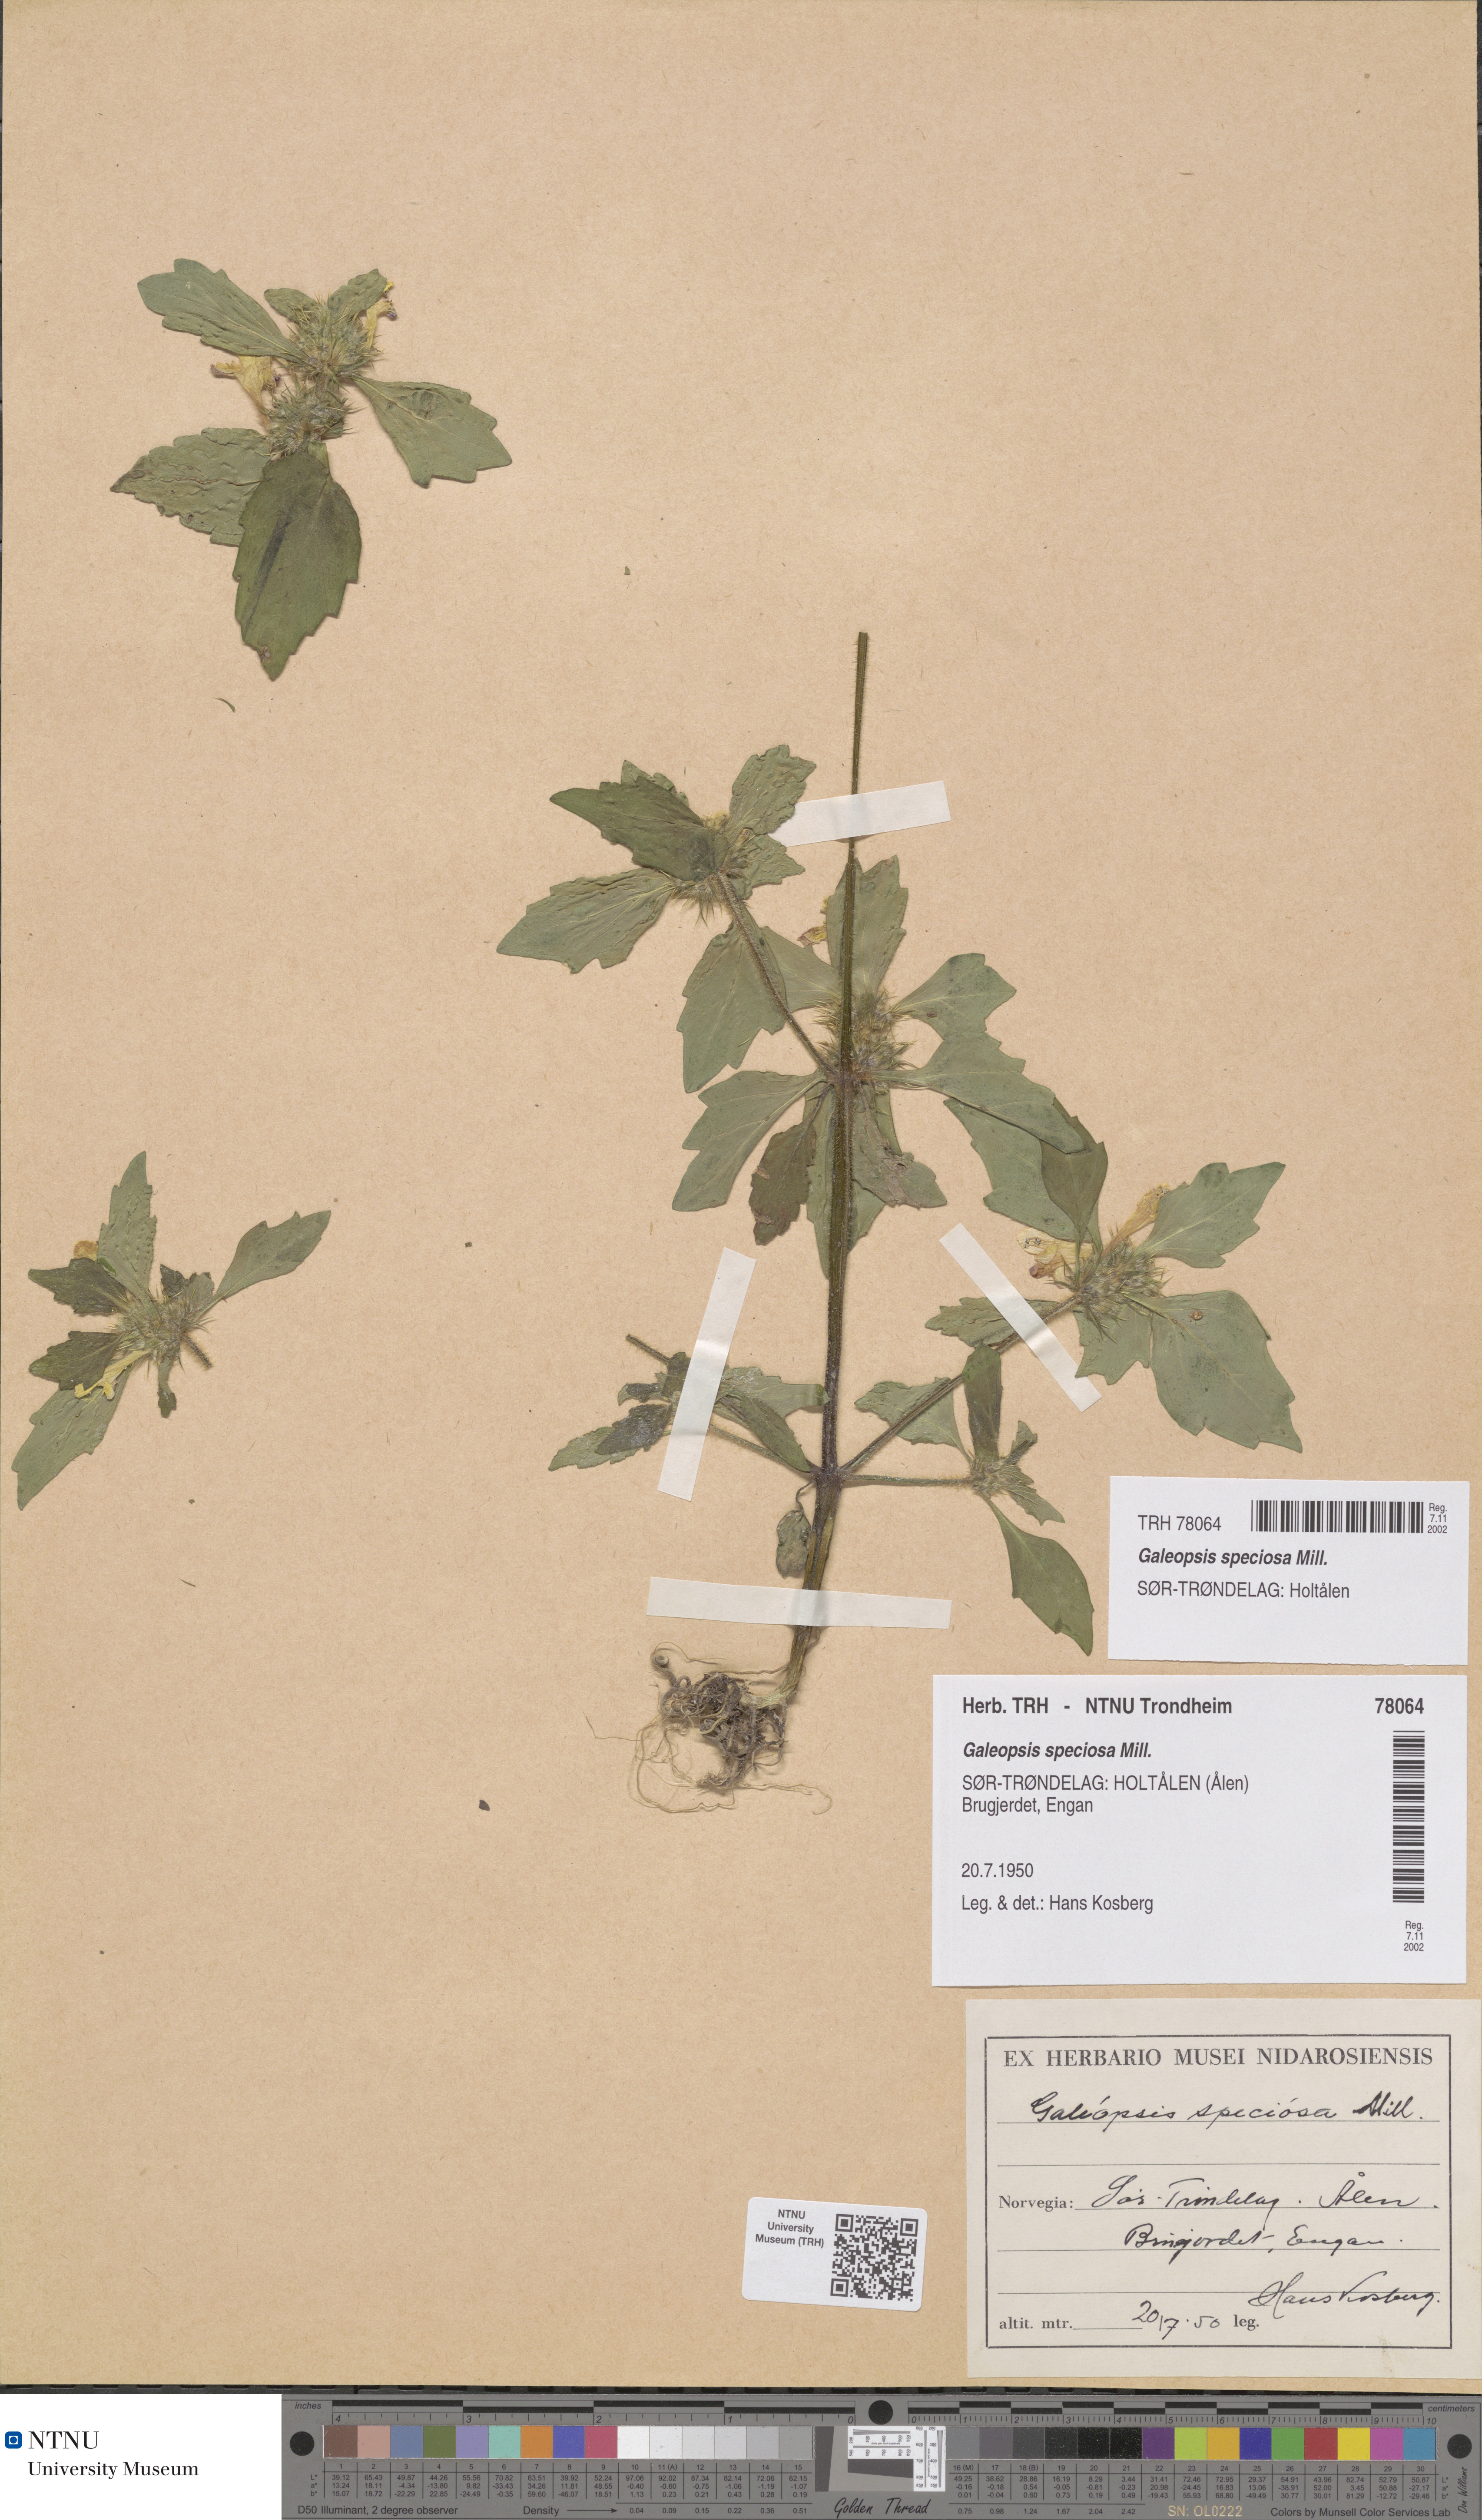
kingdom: Plantae
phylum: Tracheophyta
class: Magnoliopsida
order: Lamiales
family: Lamiaceae
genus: Galeopsis
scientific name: Galeopsis speciosa
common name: Large-flowered hemp-nettle
